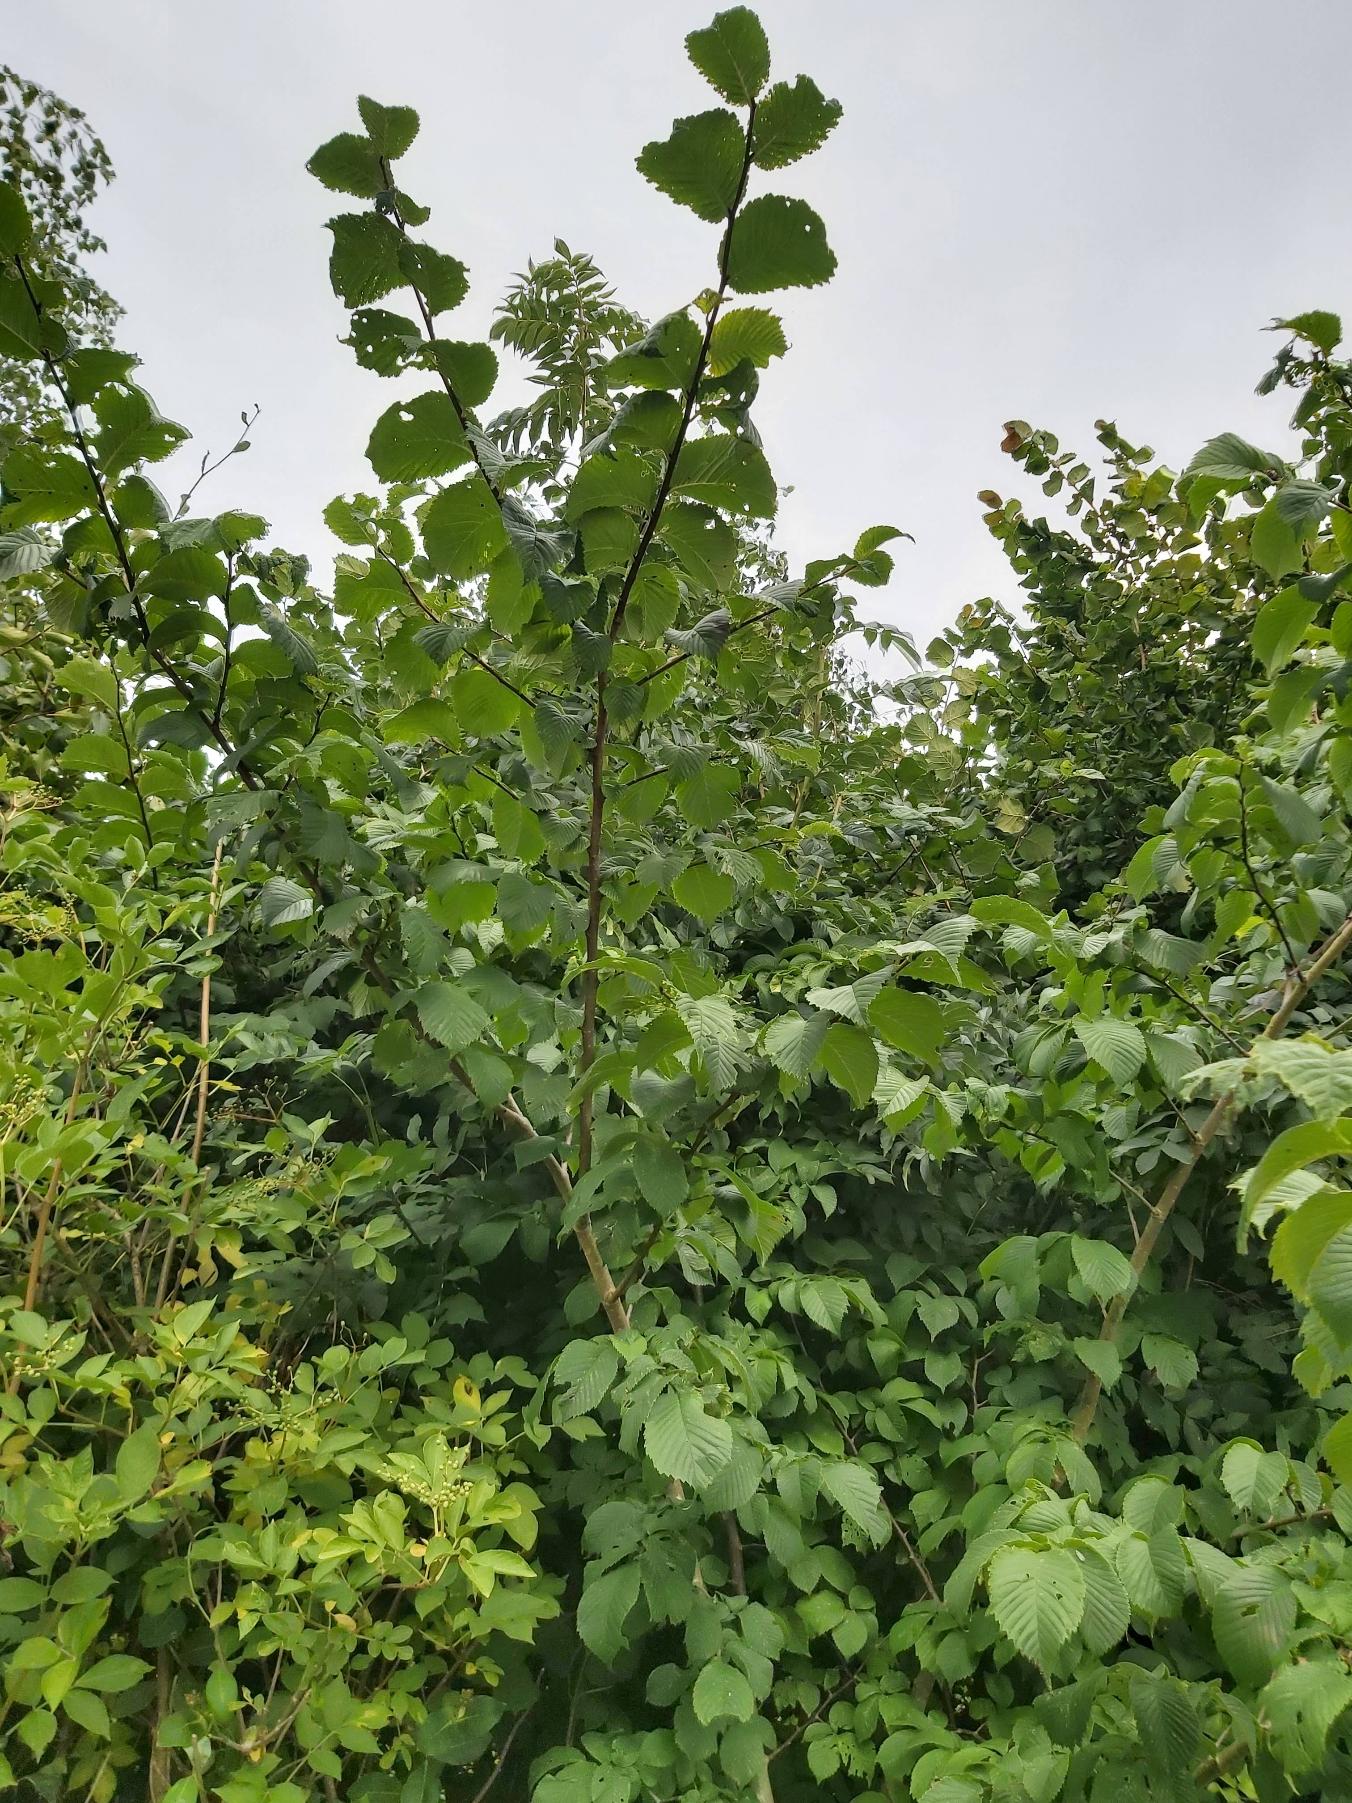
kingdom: Plantae
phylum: Tracheophyta
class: Magnoliopsida
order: Rosales
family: Ulmaceae
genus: Ulmus
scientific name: Ulmus glabra
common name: Skov-elm/storbladet elm
